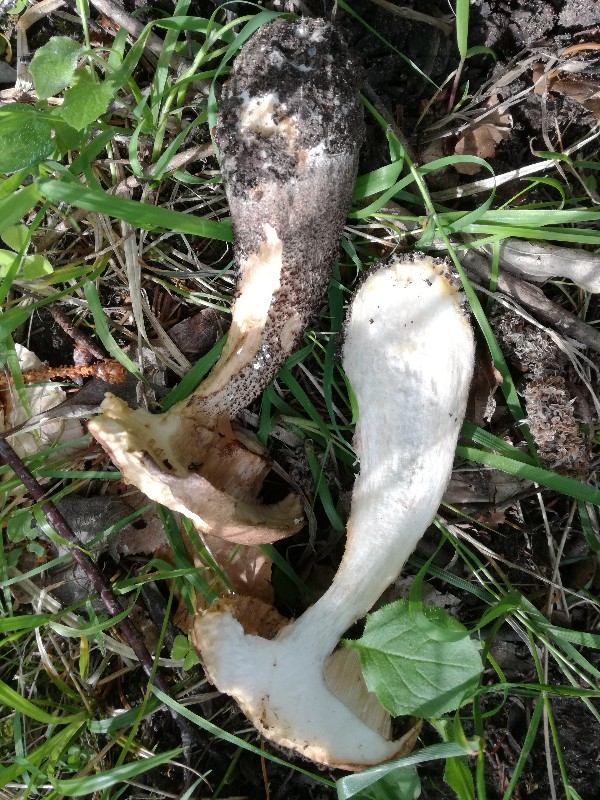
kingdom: Fungi
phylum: Basidiomycota
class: Agaricomycetes
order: Boletales
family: Boletaceae
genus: Leccinum
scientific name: Leccinum scabrum
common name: brun skælrørhat
